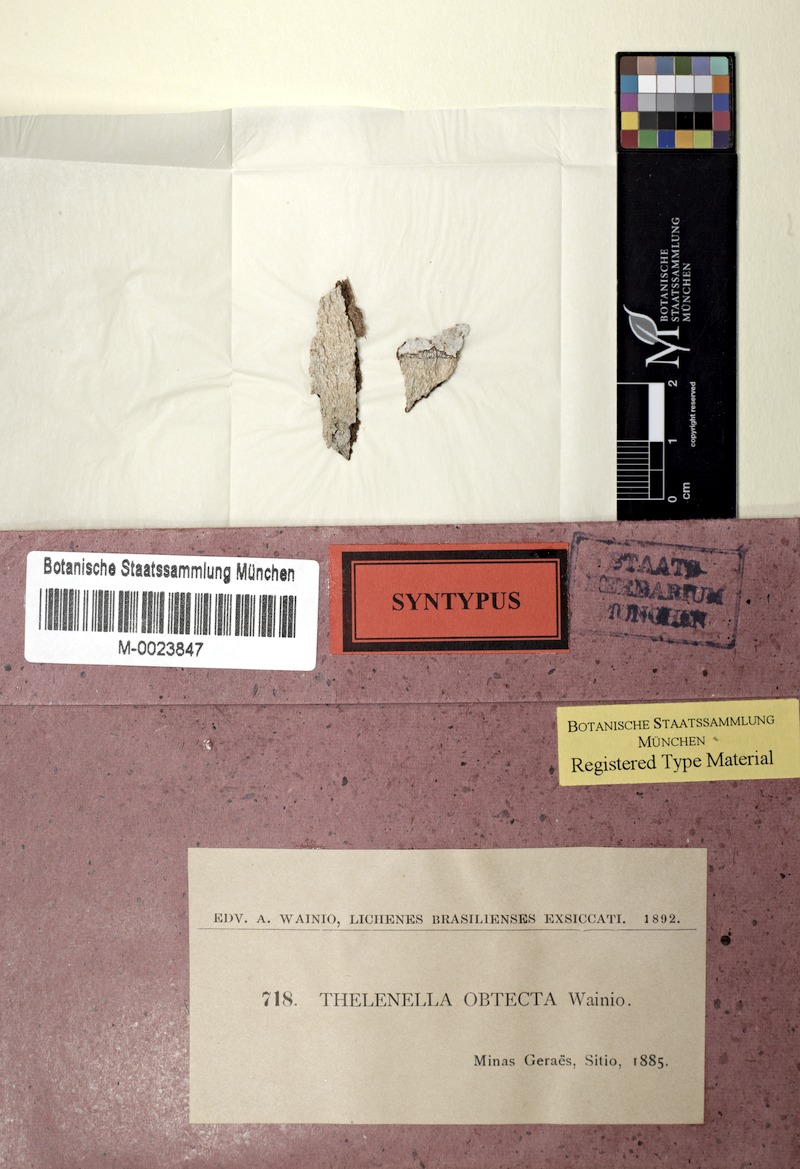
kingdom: Fungi
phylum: Ascomycota
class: Dothideomycetes
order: Strigulales
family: Strigulaceae
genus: Swinscowia
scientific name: Swinscowia obtecta
